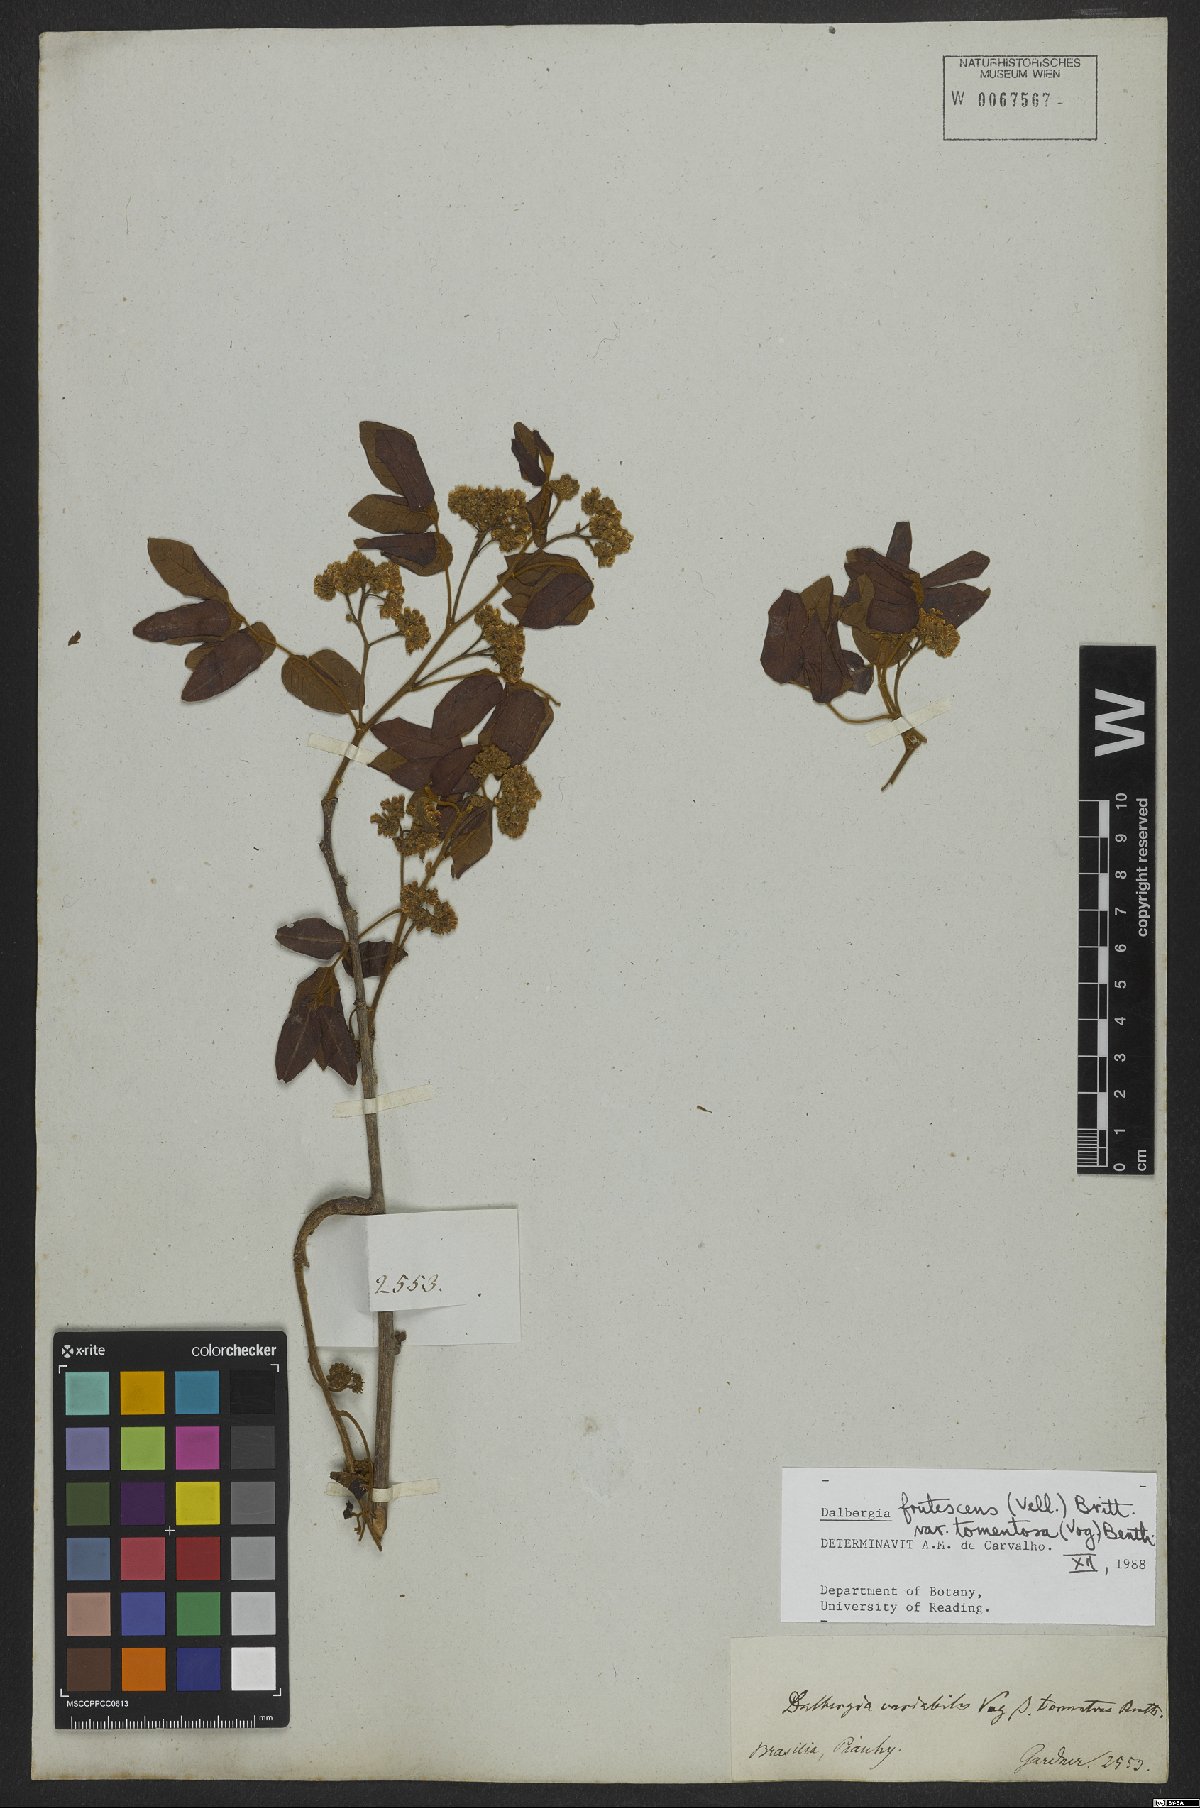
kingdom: Plantae
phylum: Tracheophyta
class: Magnoliopsida
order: Fabales
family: Fabaceae
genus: Dalbergia
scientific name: Dalbergia frutescens
